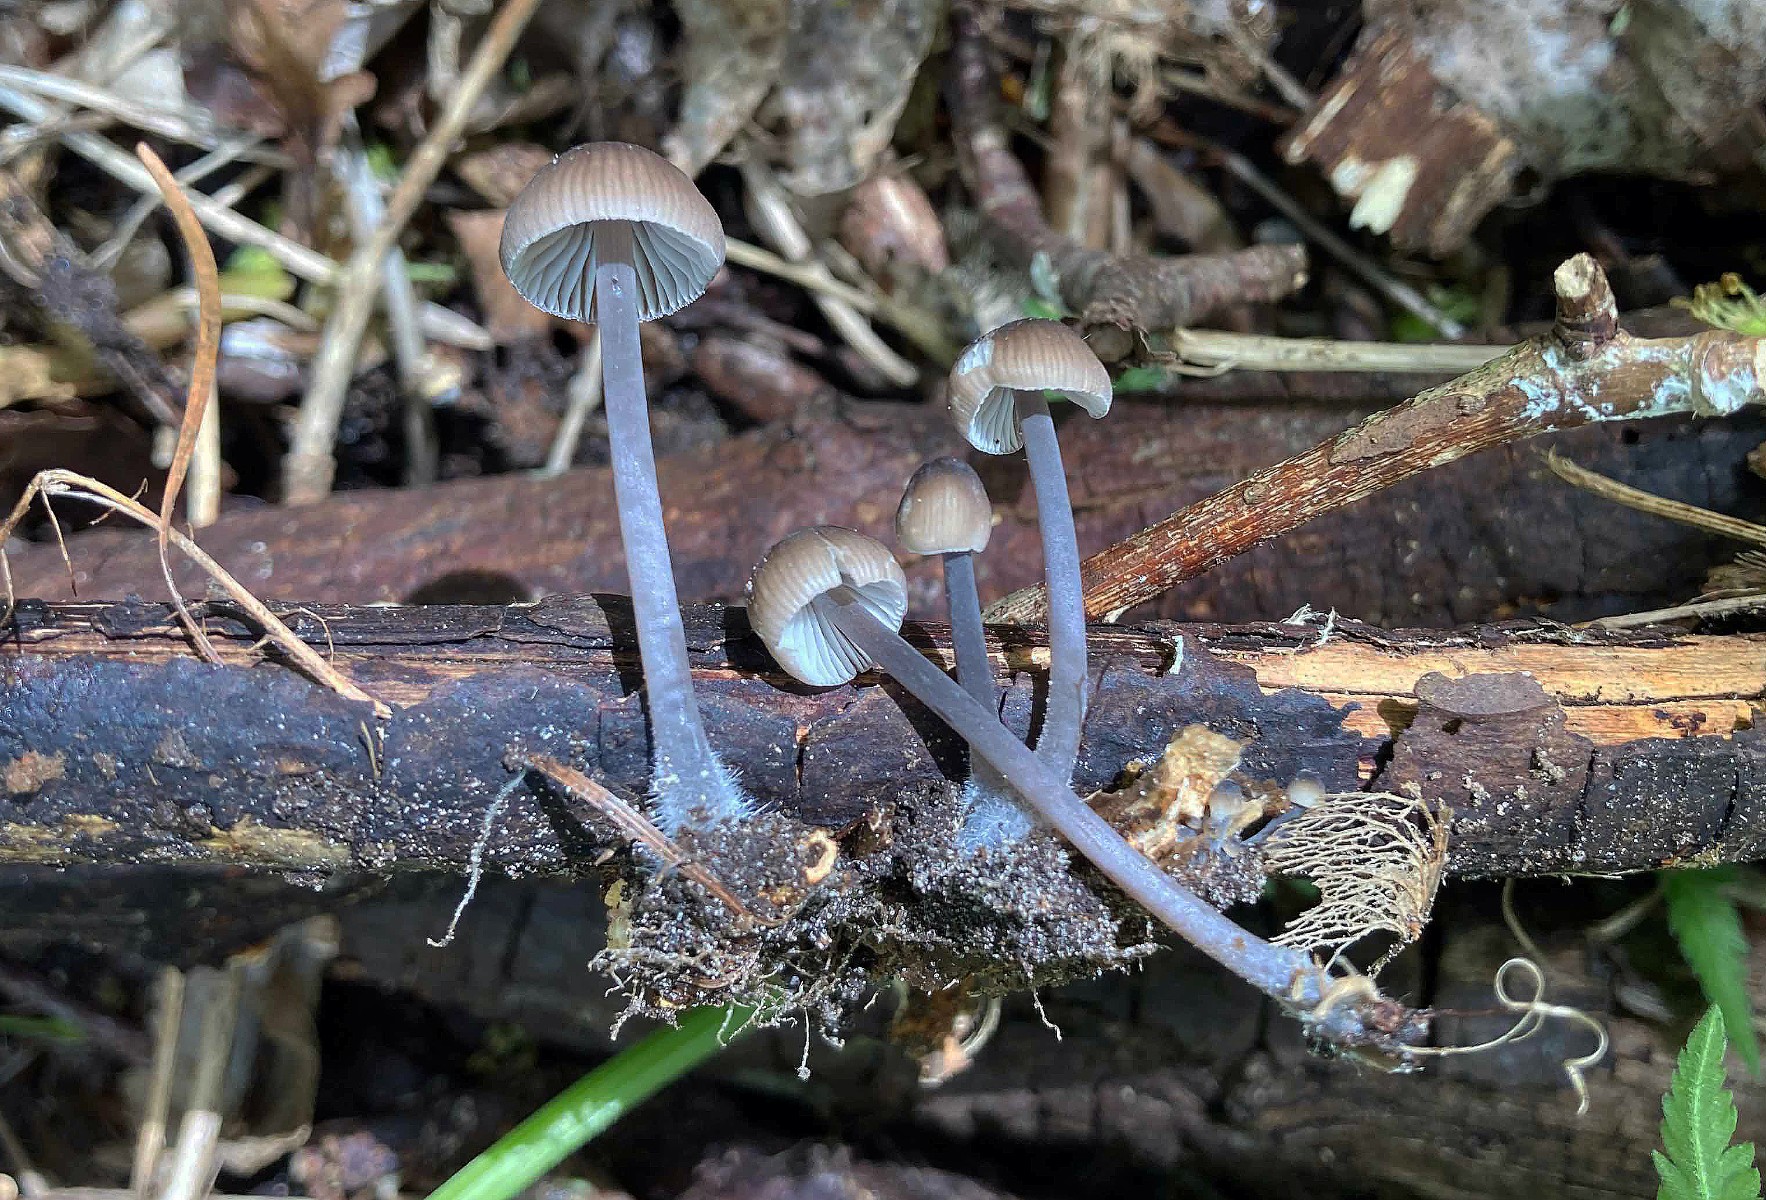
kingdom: Fungi
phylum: Basidiomycota
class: Agaricomycetes
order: Agaricales
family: Mycenaceae
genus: Mycena
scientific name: Mycena abramsii
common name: sommer-huesvamp
